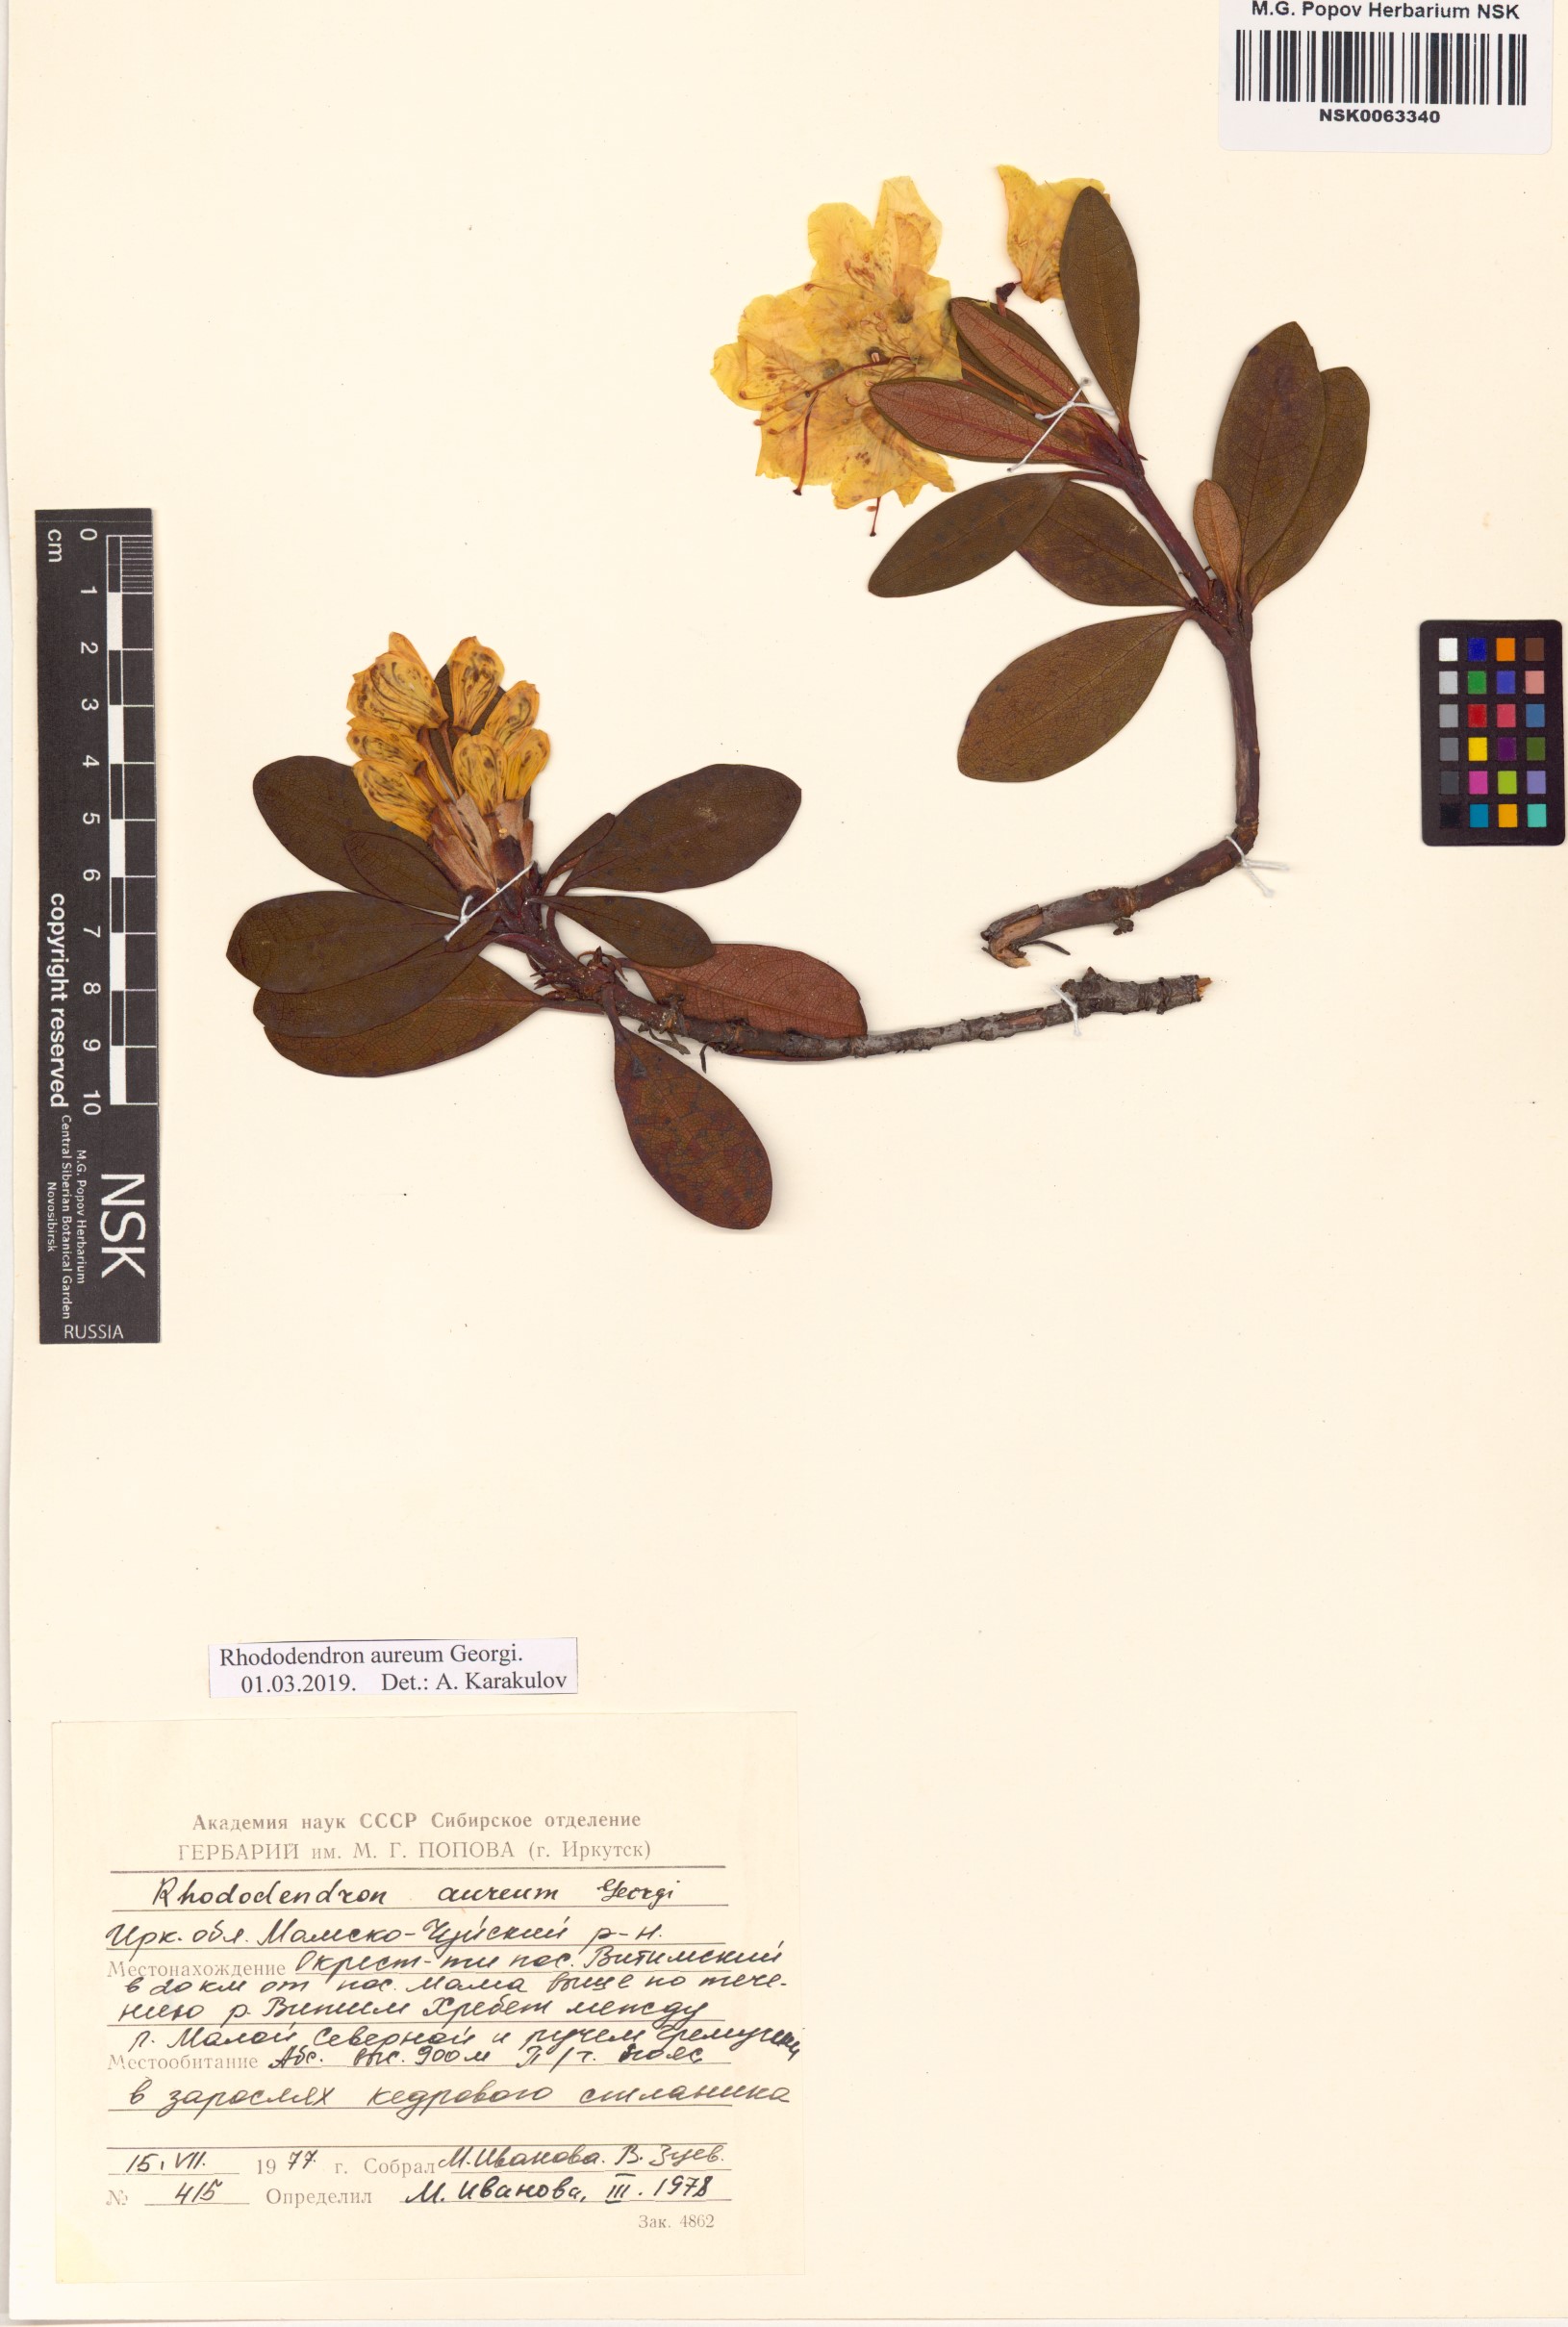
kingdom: Plantae
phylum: Tracheophyta
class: Magnoliopsida
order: Ericales
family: Ericaceae
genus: Rhododendron
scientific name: Rhododendron aureum
